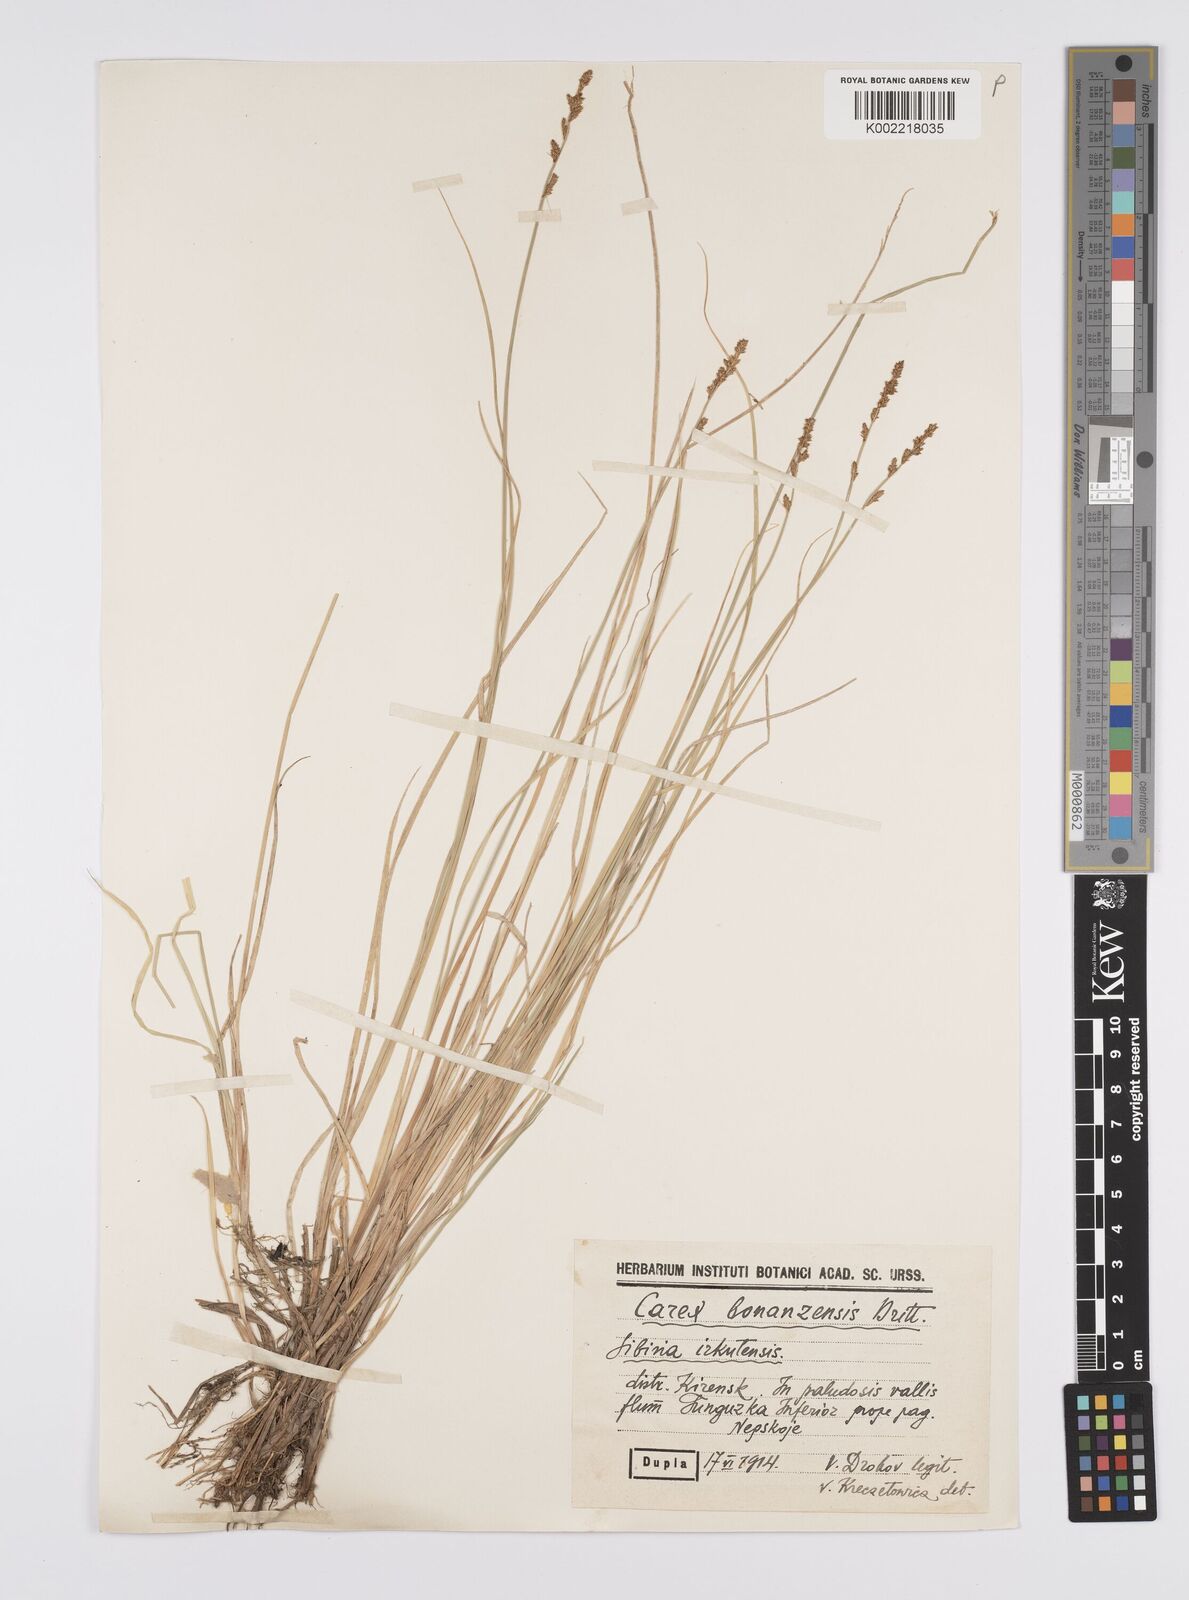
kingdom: Plantae
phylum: Tracheophyta
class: Liliopsida
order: Poales
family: Cyperaceae
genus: Carex
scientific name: Carex bonanzensis
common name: Yukon sedge
